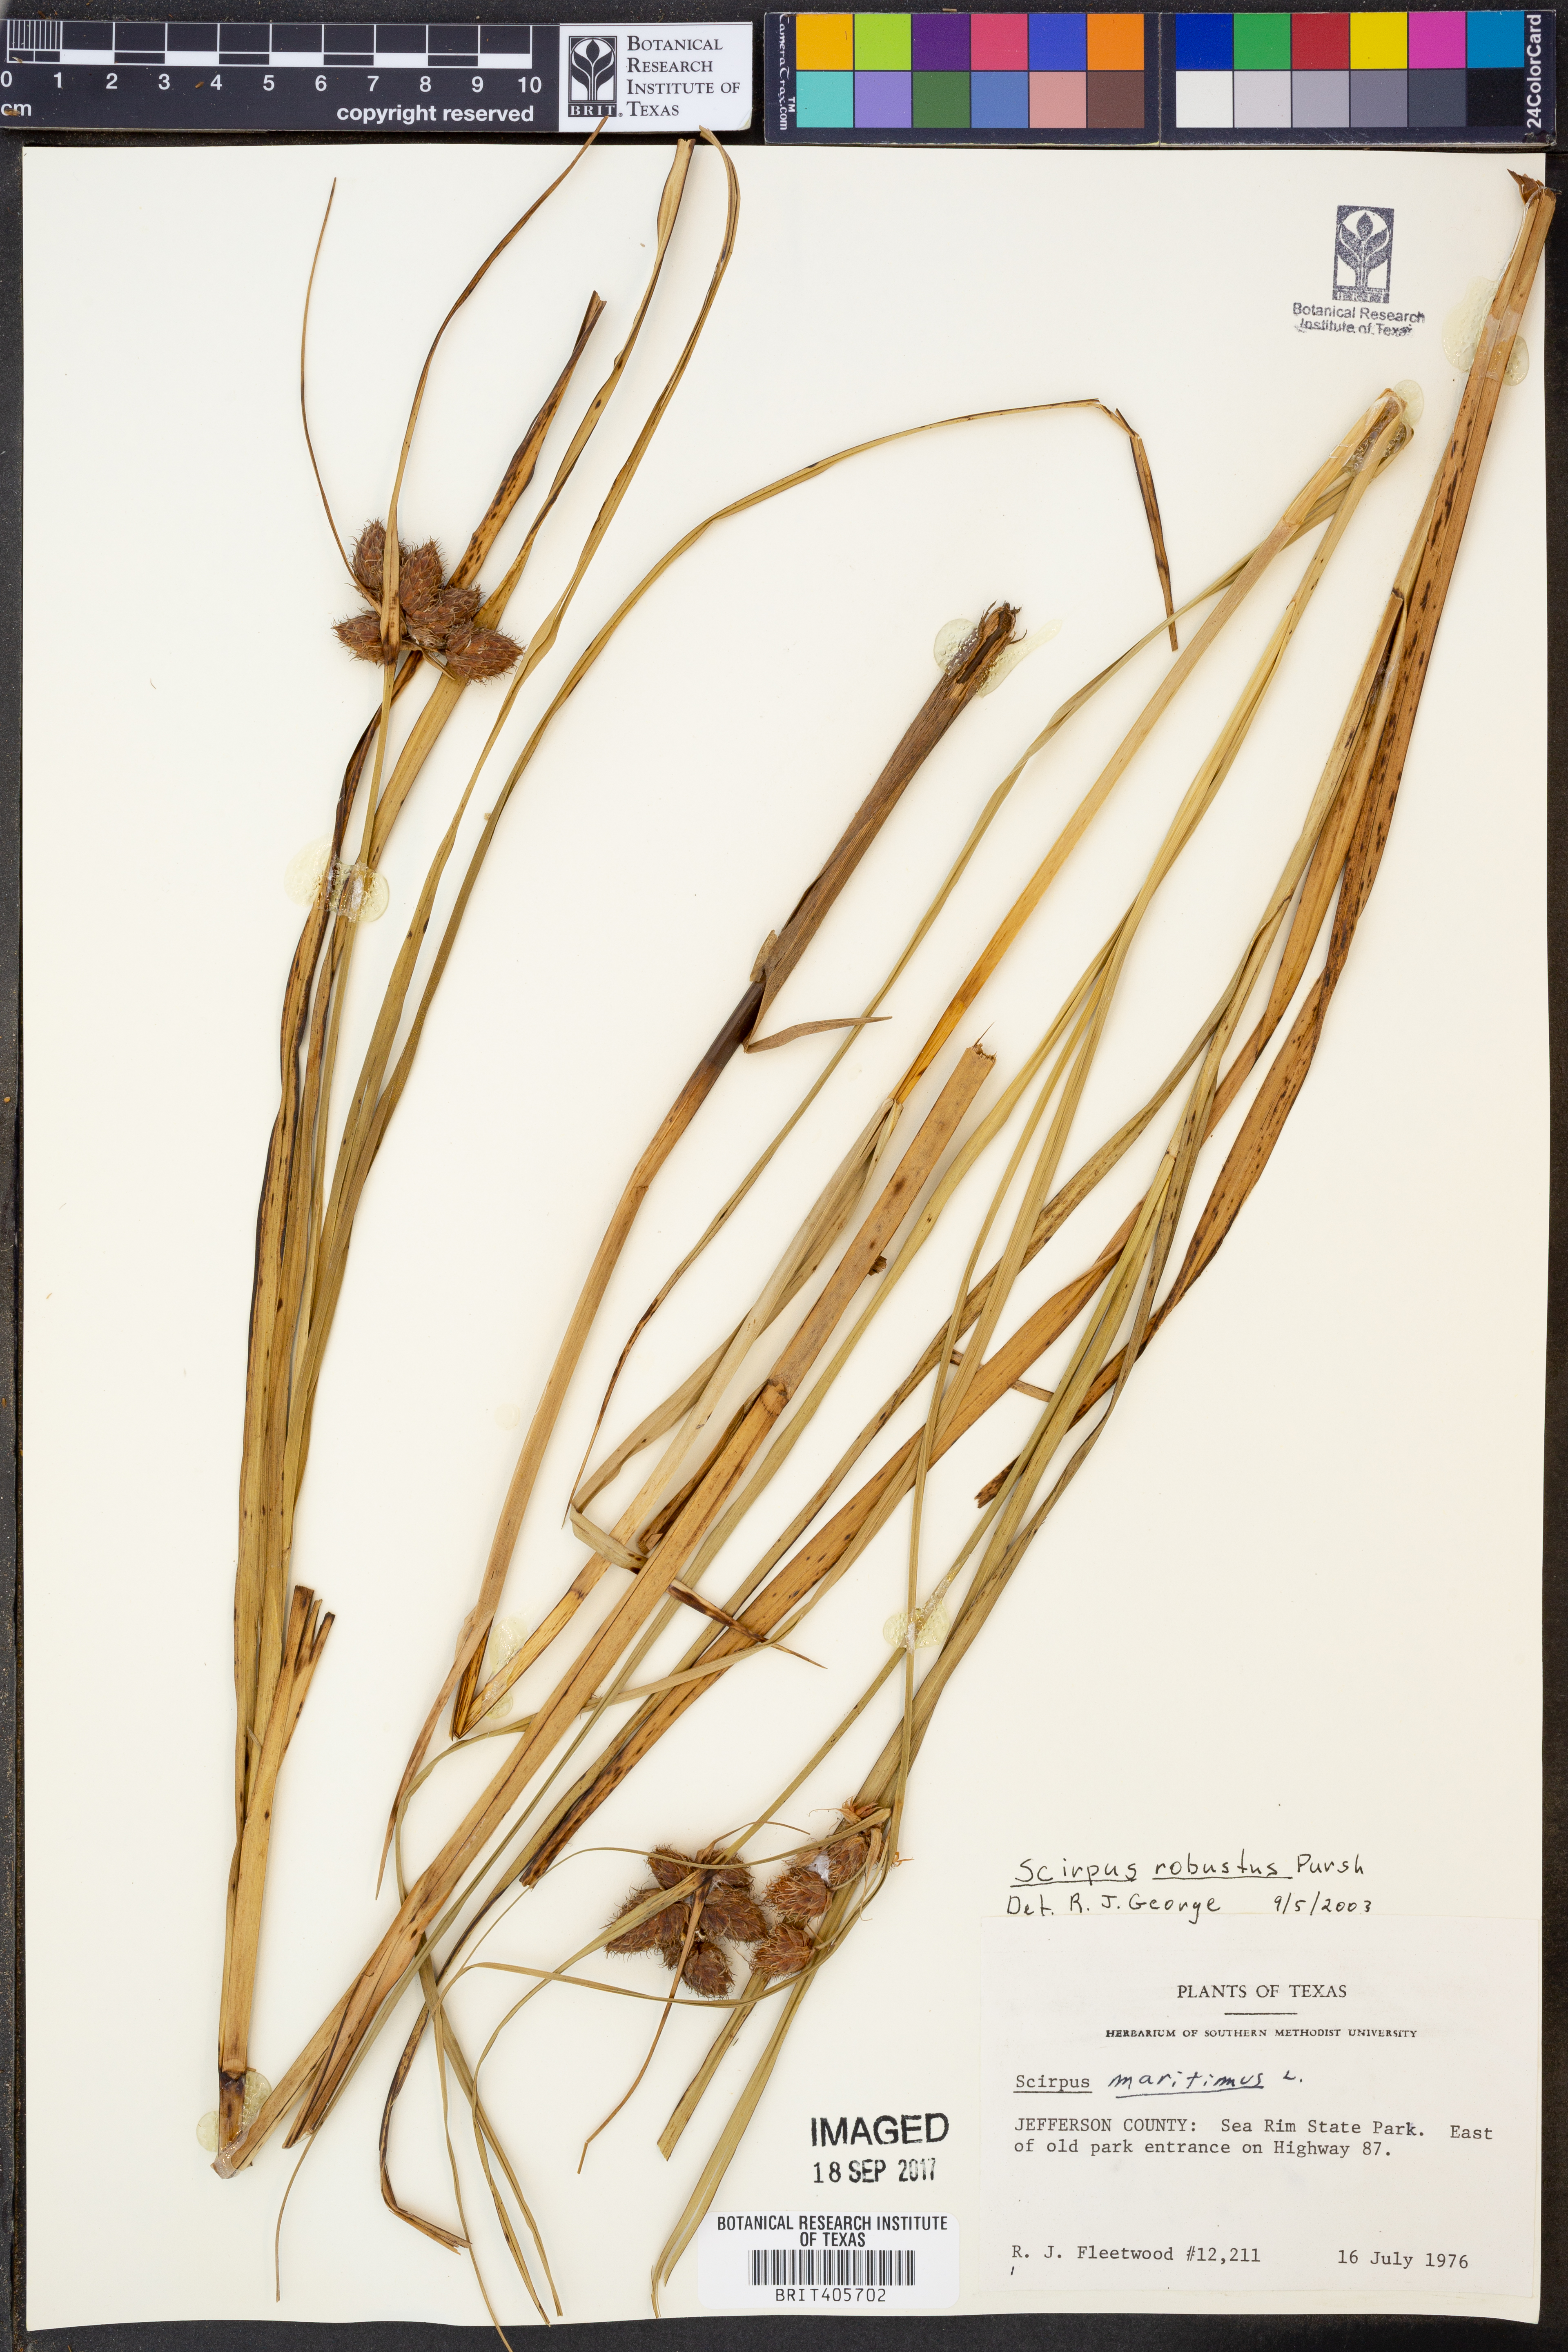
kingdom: Plantae
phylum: Tracheophyta
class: Liliopsida
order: Poales
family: Cyperaceae
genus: Bolboschoenus
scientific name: Bolboschoenus robustus
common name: Seacoast bulrush
